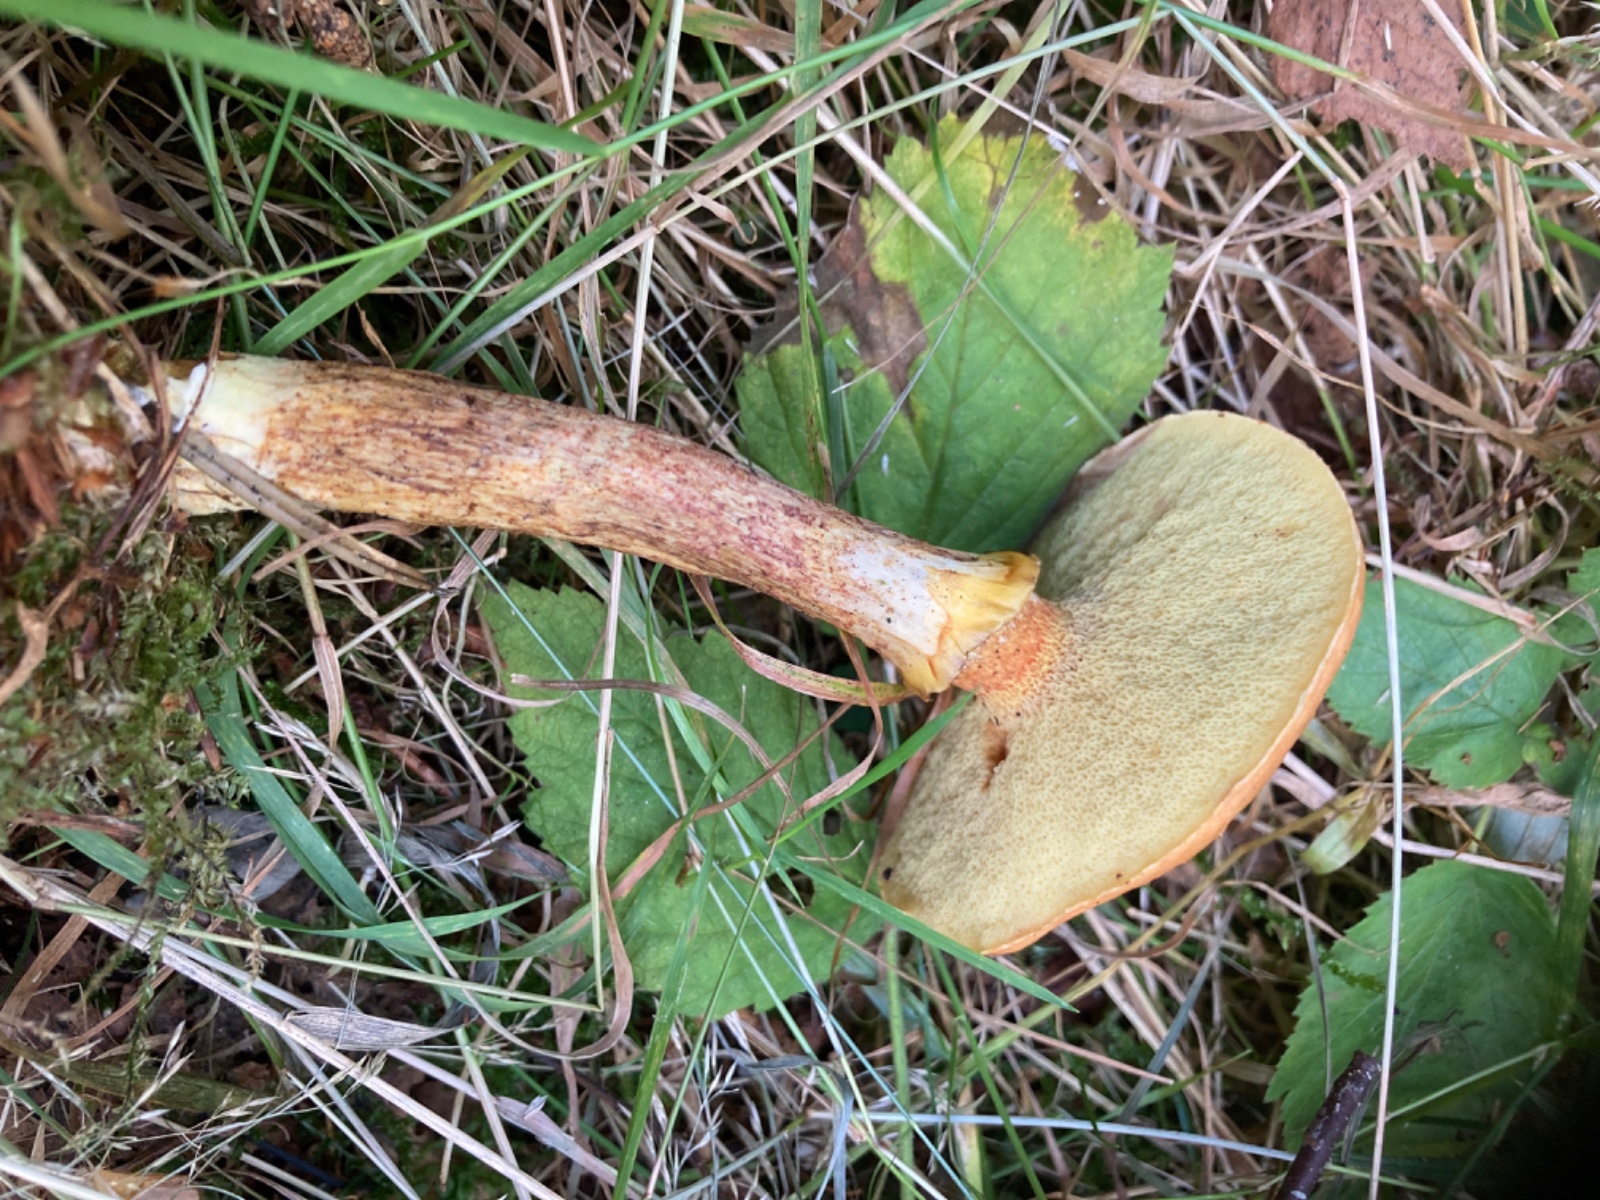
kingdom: Fungi
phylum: Basidiomycota
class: Agaricomycetes
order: Boletales
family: Suillaceae
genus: Suillus
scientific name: Suillus grevillei
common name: lærke-slimrørhat
